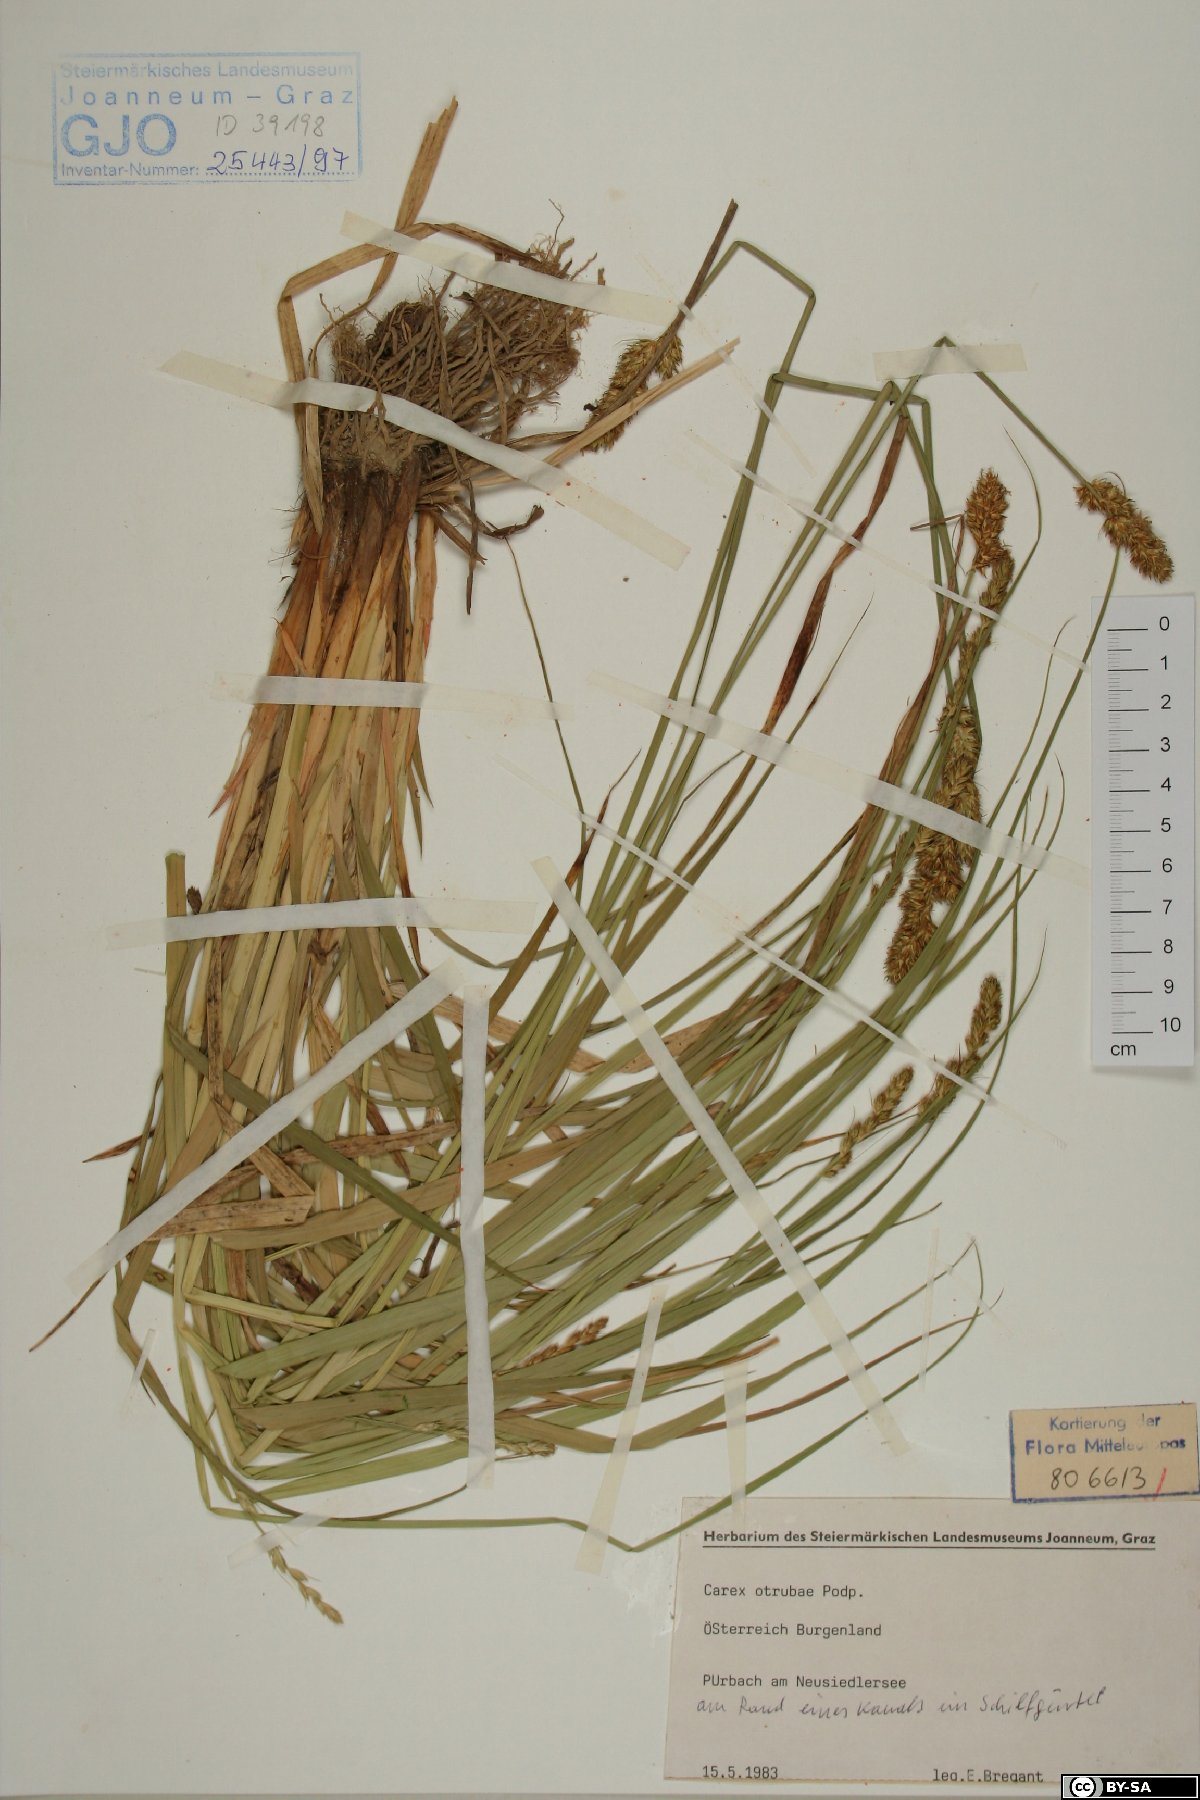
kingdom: Plantae
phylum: Tracheophyta
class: Liliopsida
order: Poales
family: Cyperaceae
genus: Carex
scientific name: Carex otrubae
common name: False fox-sedge
